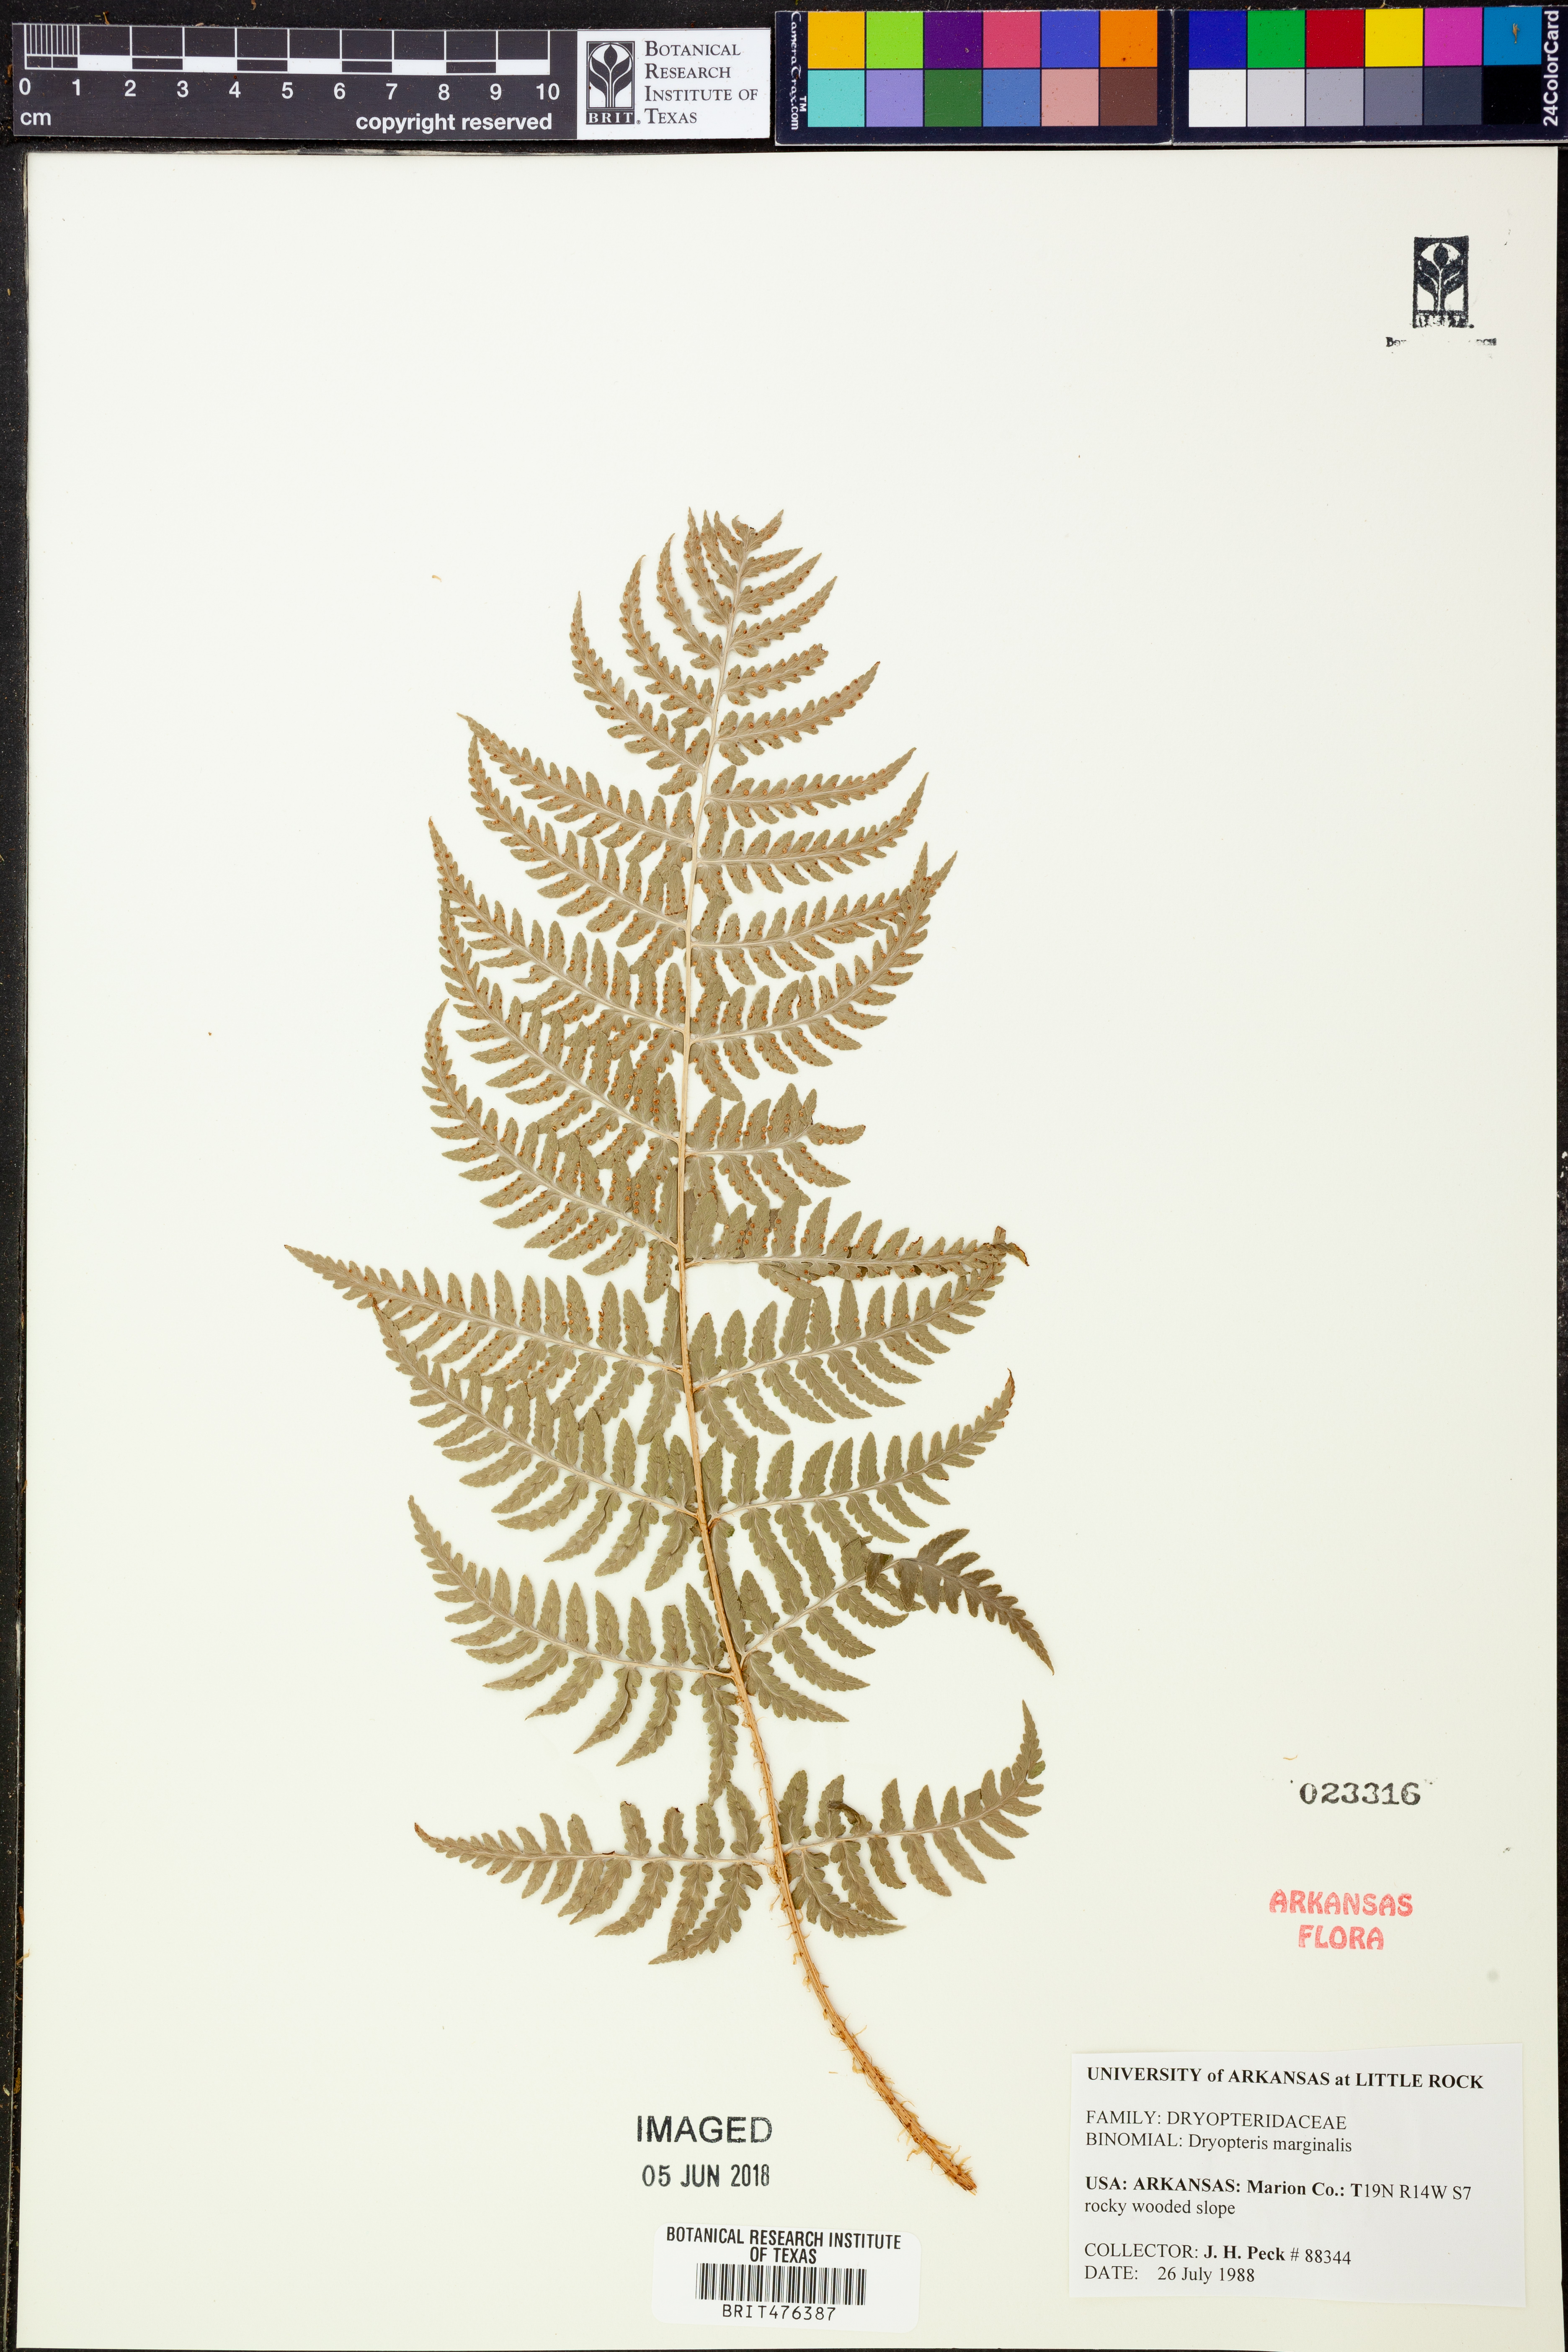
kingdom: Plantae
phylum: Tracheophyta
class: Polypodiopsida
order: Polypodiales
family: Dryopteridaceae
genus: Dryopteris
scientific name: Dryopteris marginalis
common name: Marginal wood fern
